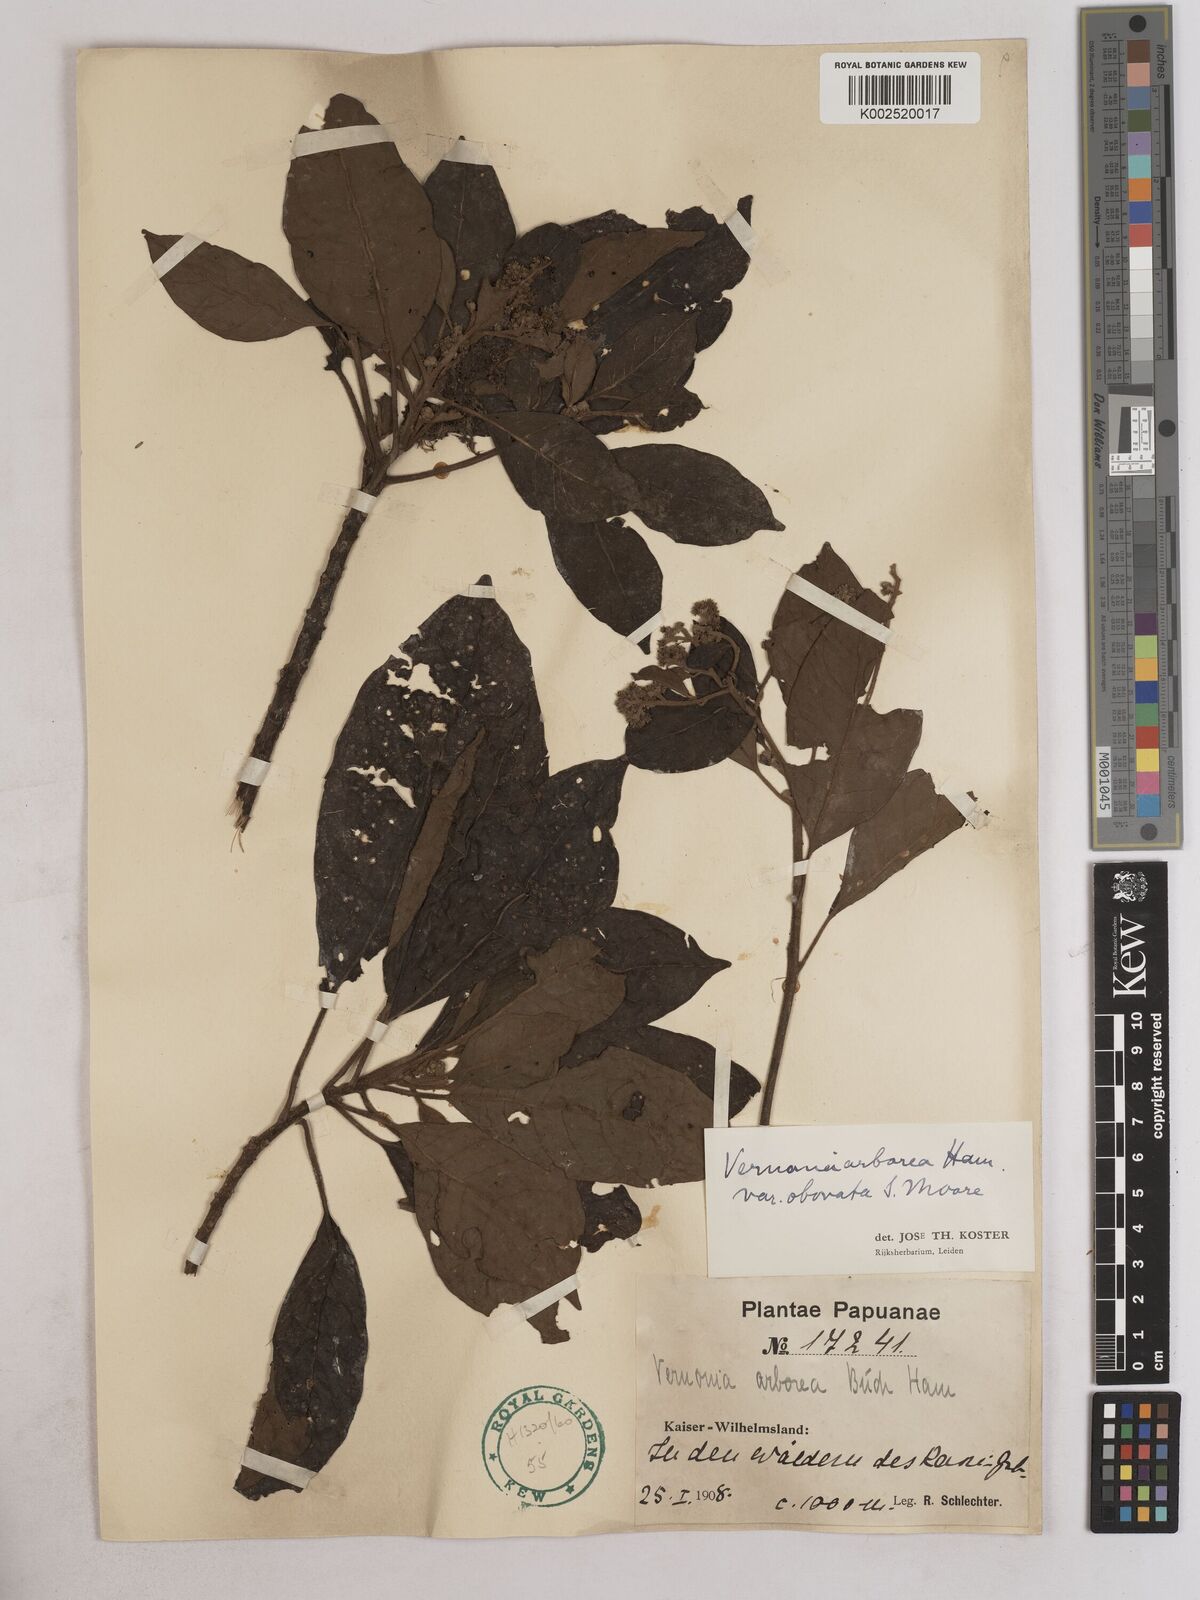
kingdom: Plantae
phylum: Tracheophyta
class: Magnoliopsida
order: Asterales
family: Asteraceae
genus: Strobocalyx
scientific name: Strobocalyx arborea
